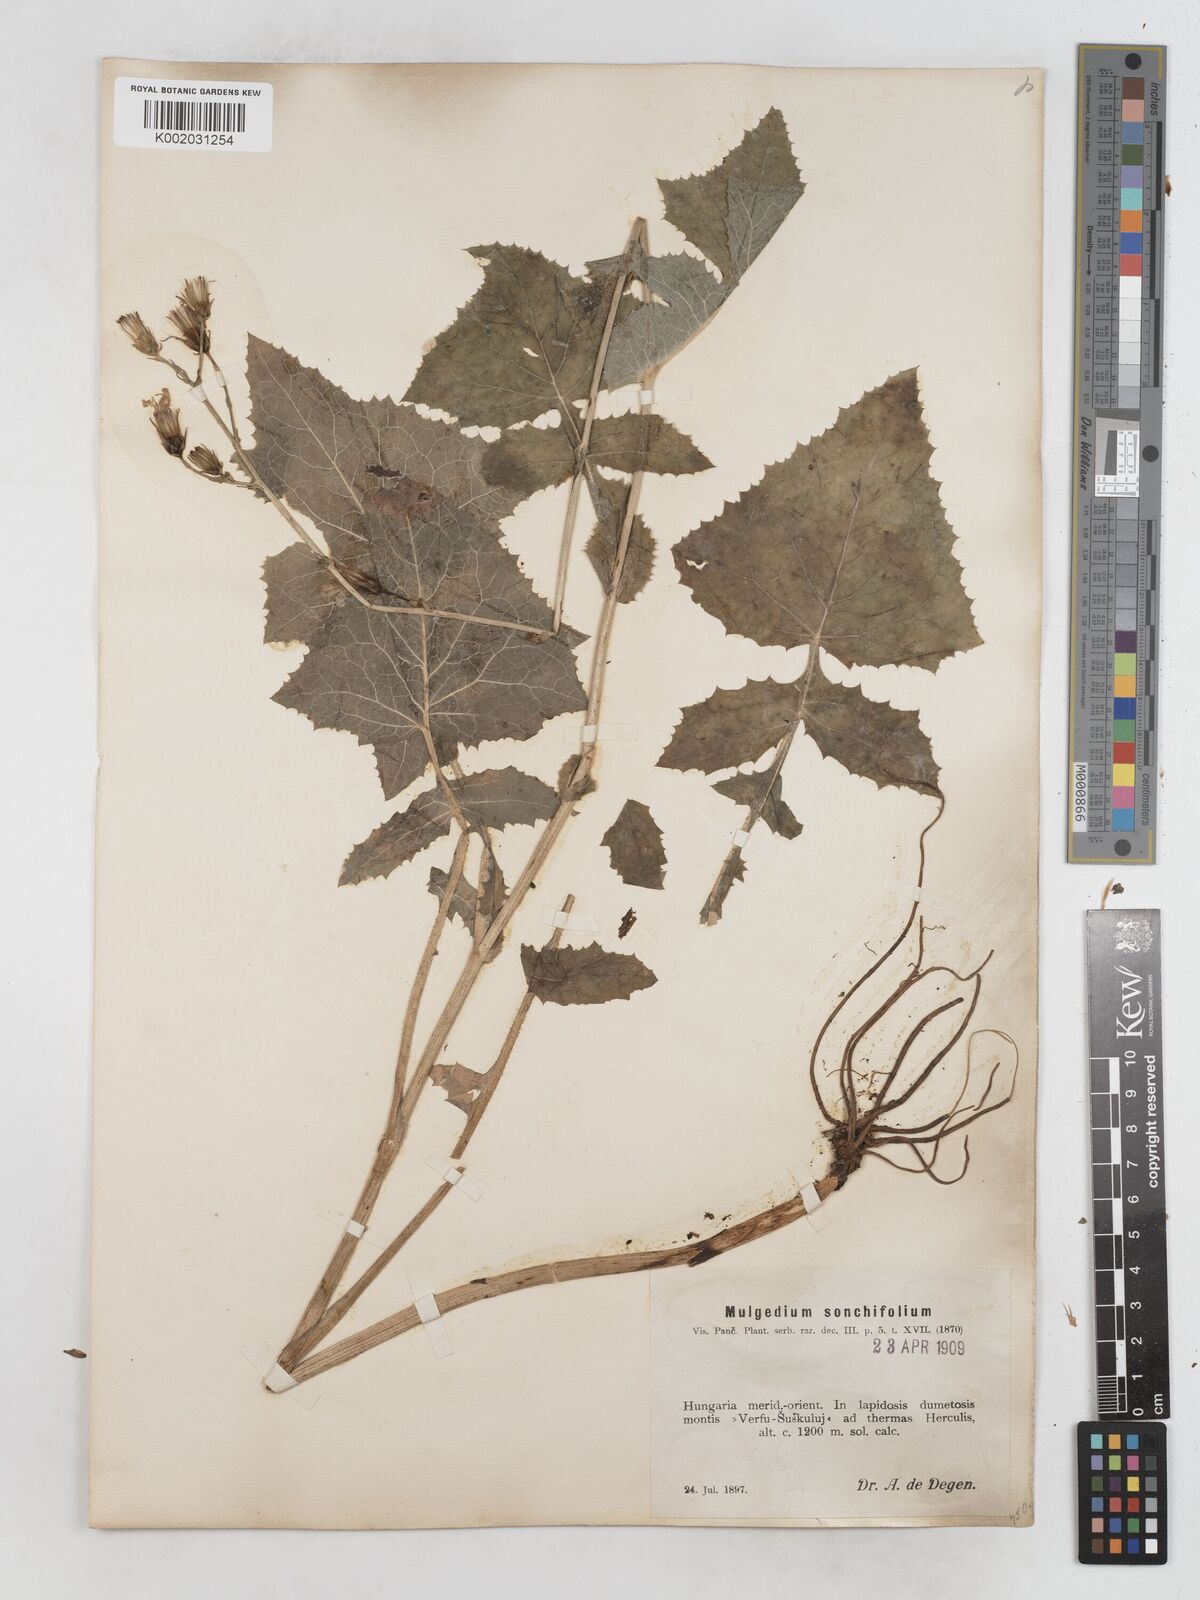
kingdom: Plantae
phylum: Tracheophyta
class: Magnoliopsida
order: Asterales
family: Asteraceae
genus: Lactuca
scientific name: Lactuca sonchifolia
